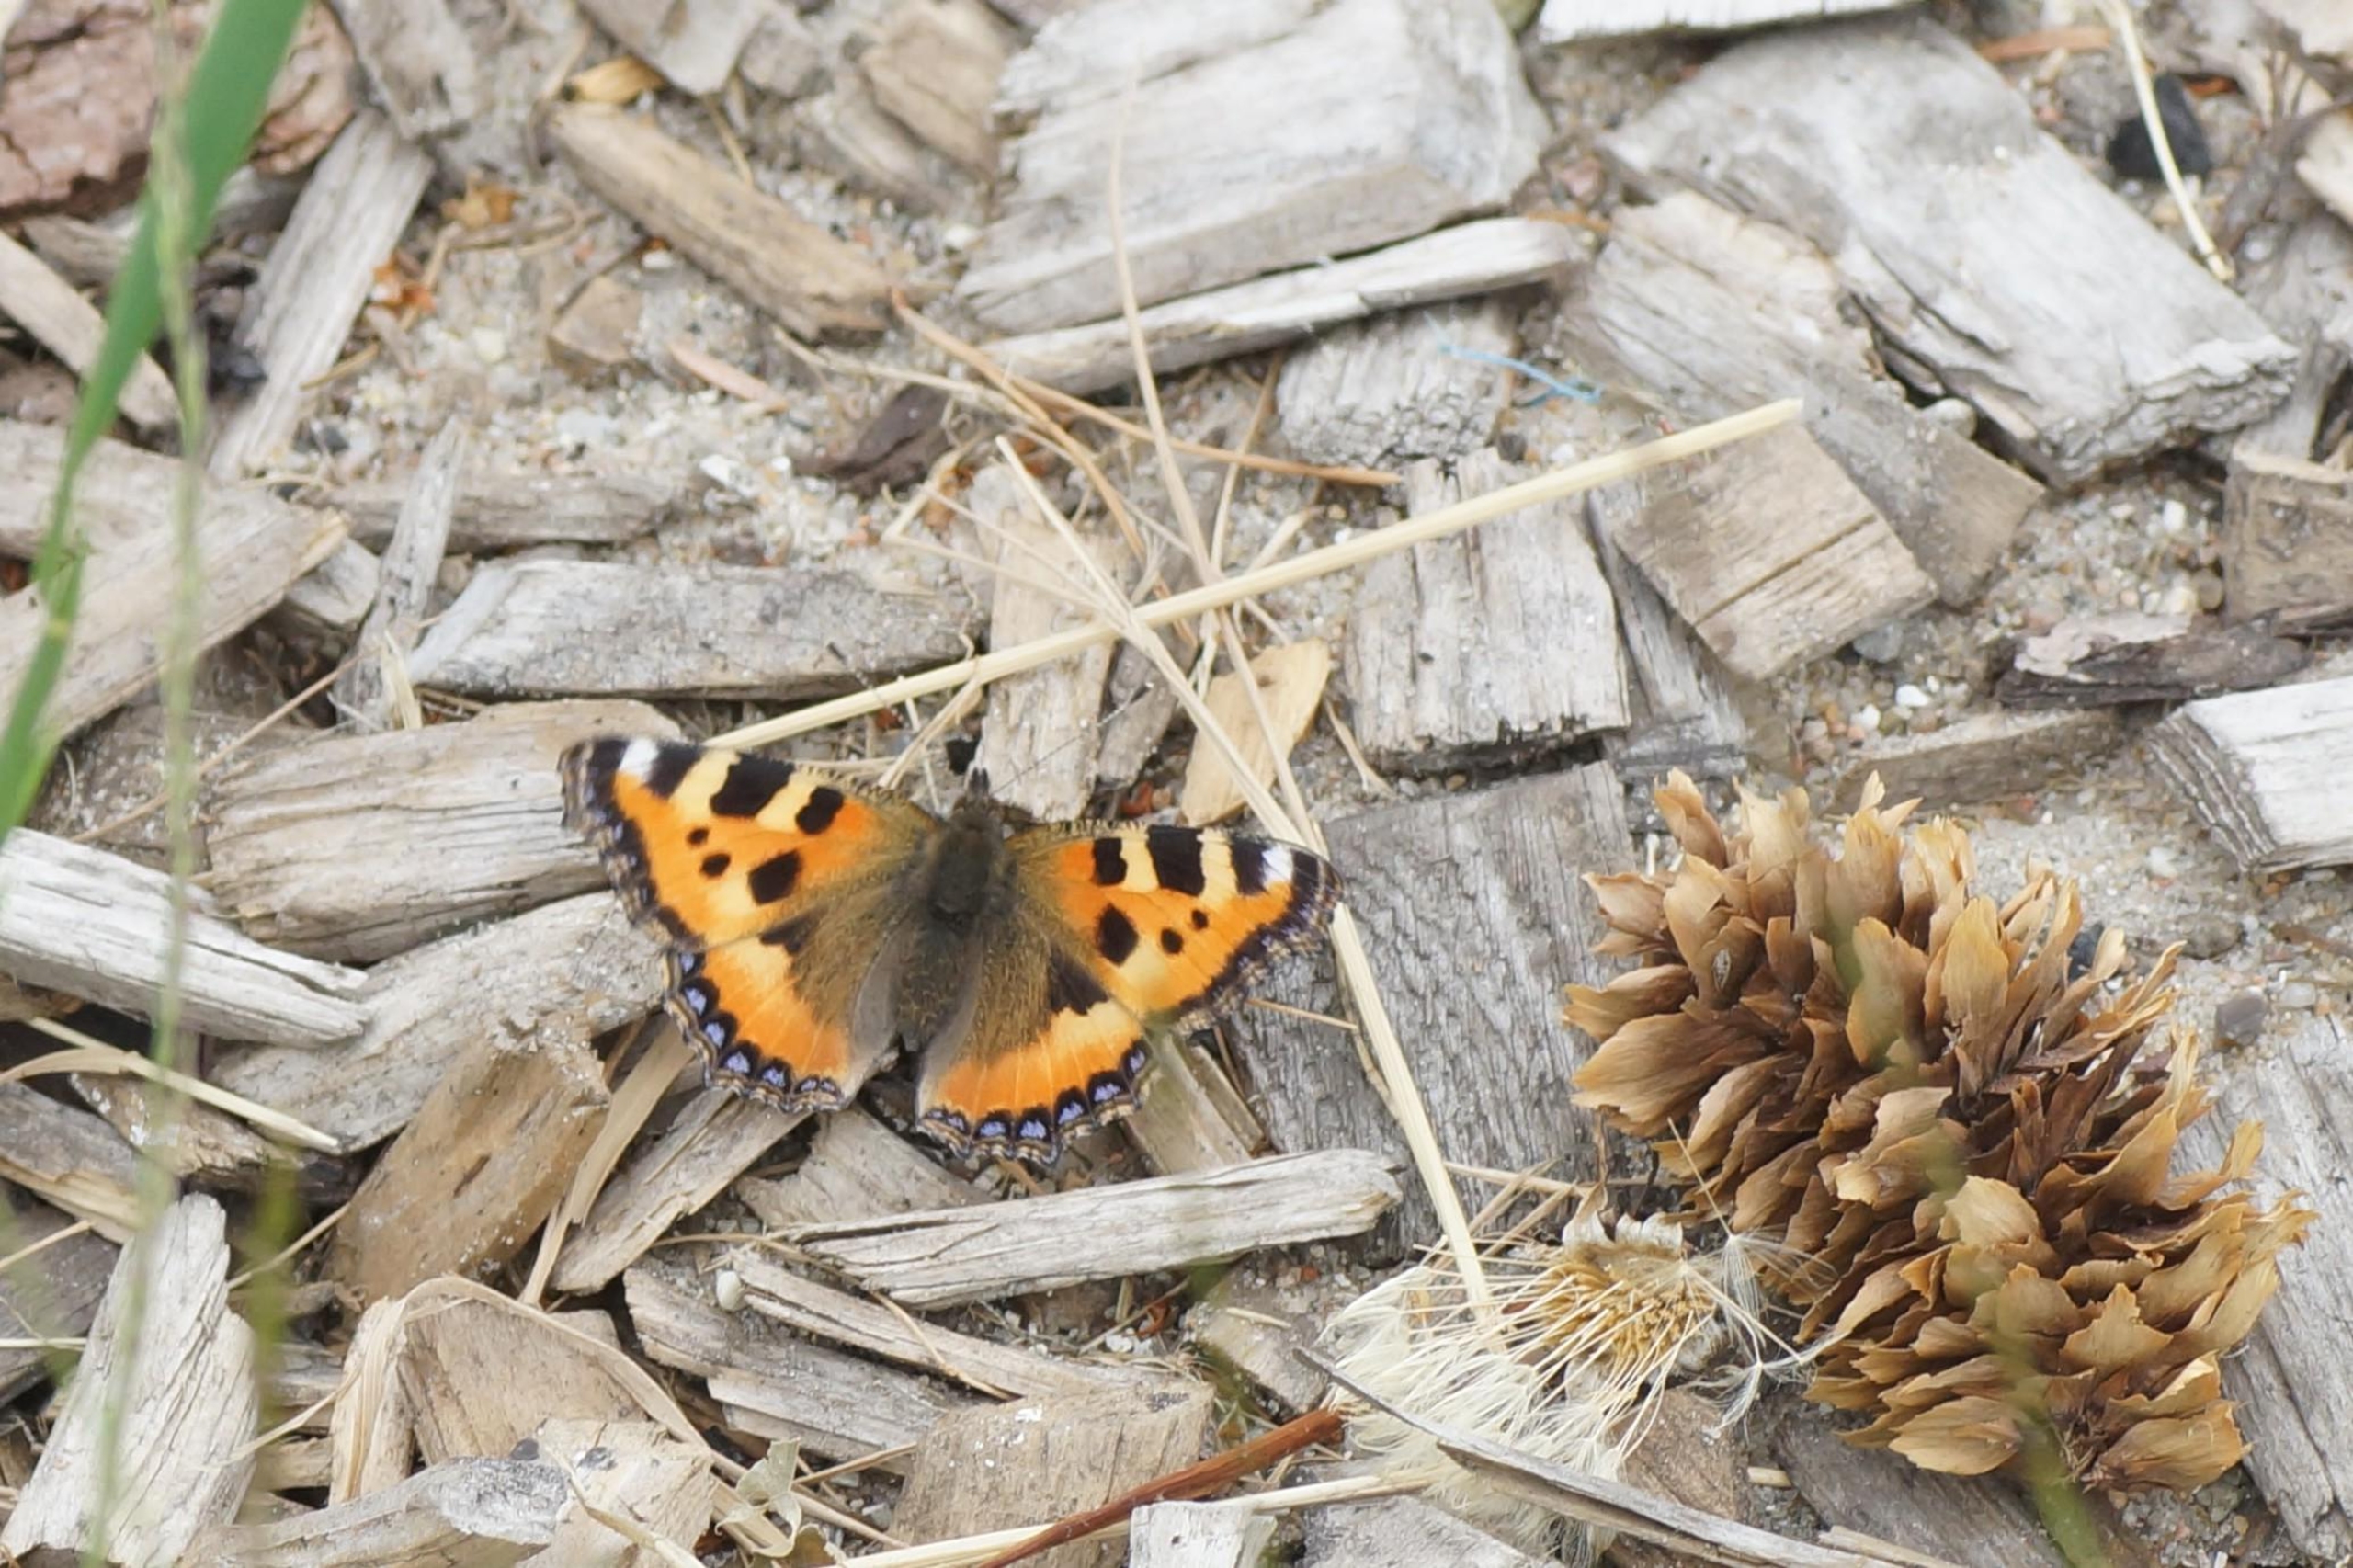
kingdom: Animalia
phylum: Arthropoda
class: Insecta
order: Lepidoptera
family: Nymphalidae
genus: Aglais
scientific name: Aglais urticae
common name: Nældens takvinge
